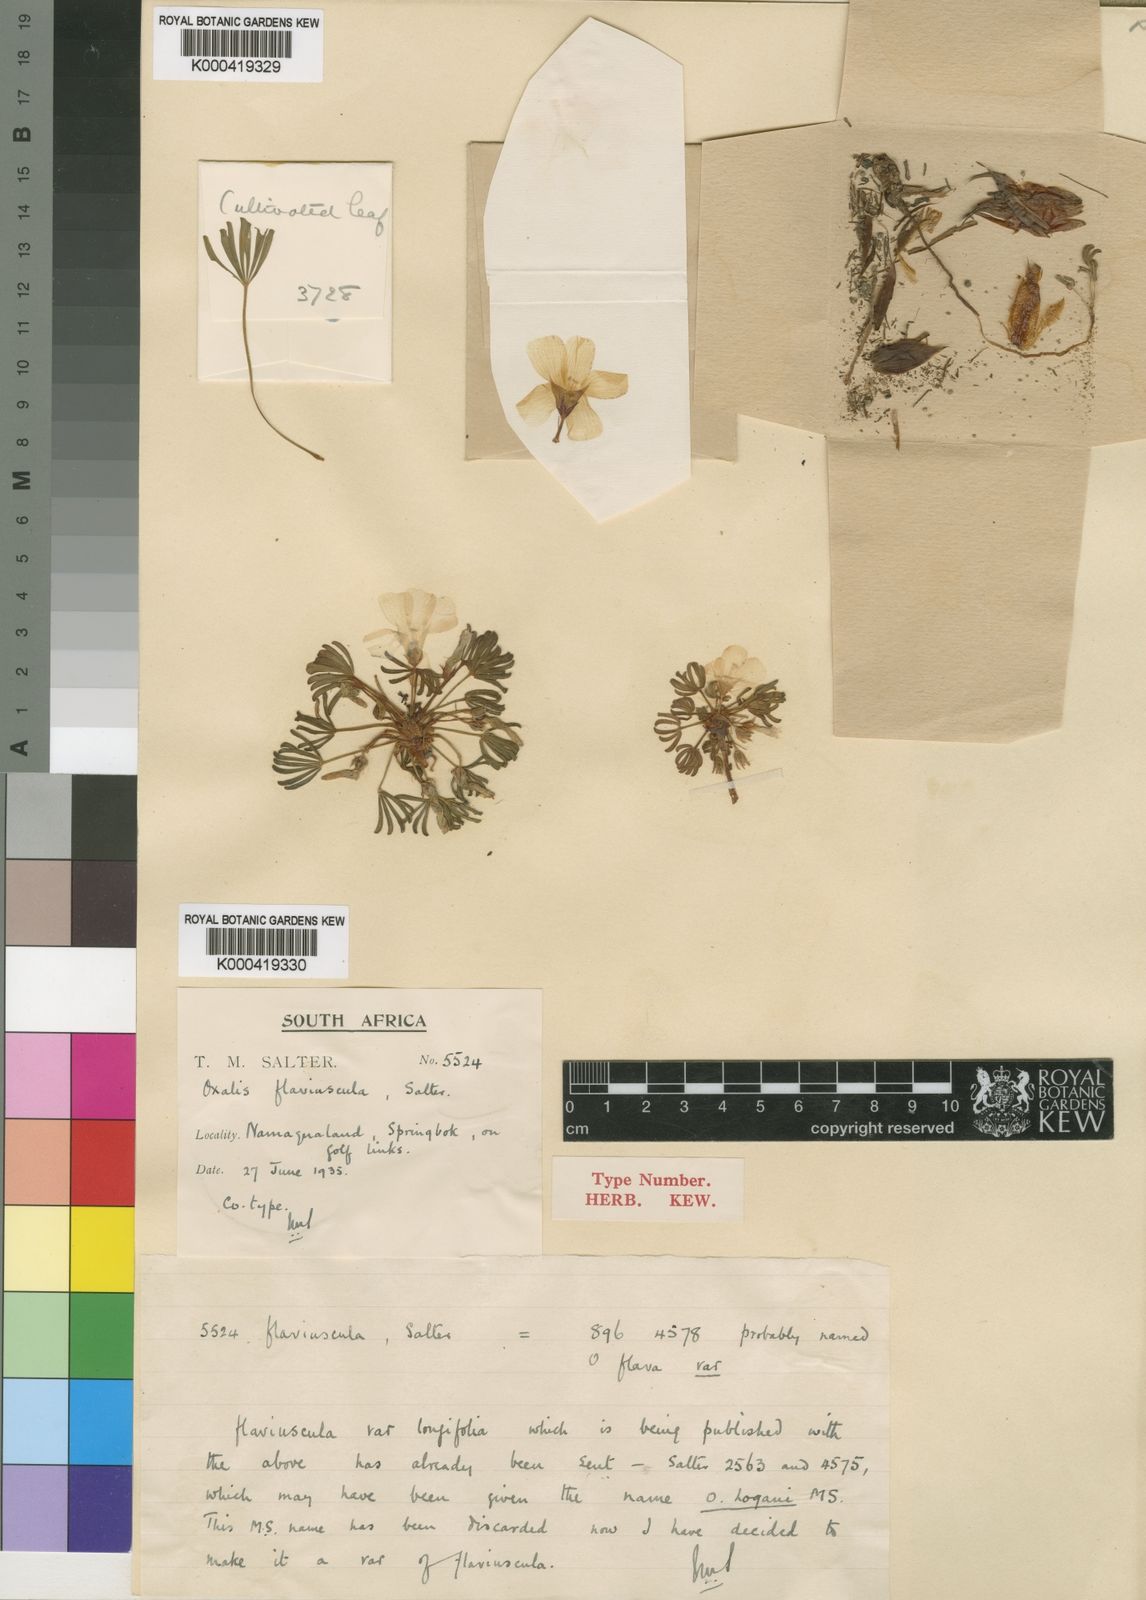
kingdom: Plantae
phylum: Tracheophyta
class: Magnoliopsida
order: Oxalidales
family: Oxalidaceae
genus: Oxalis
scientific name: Oxalis flaviuscula
